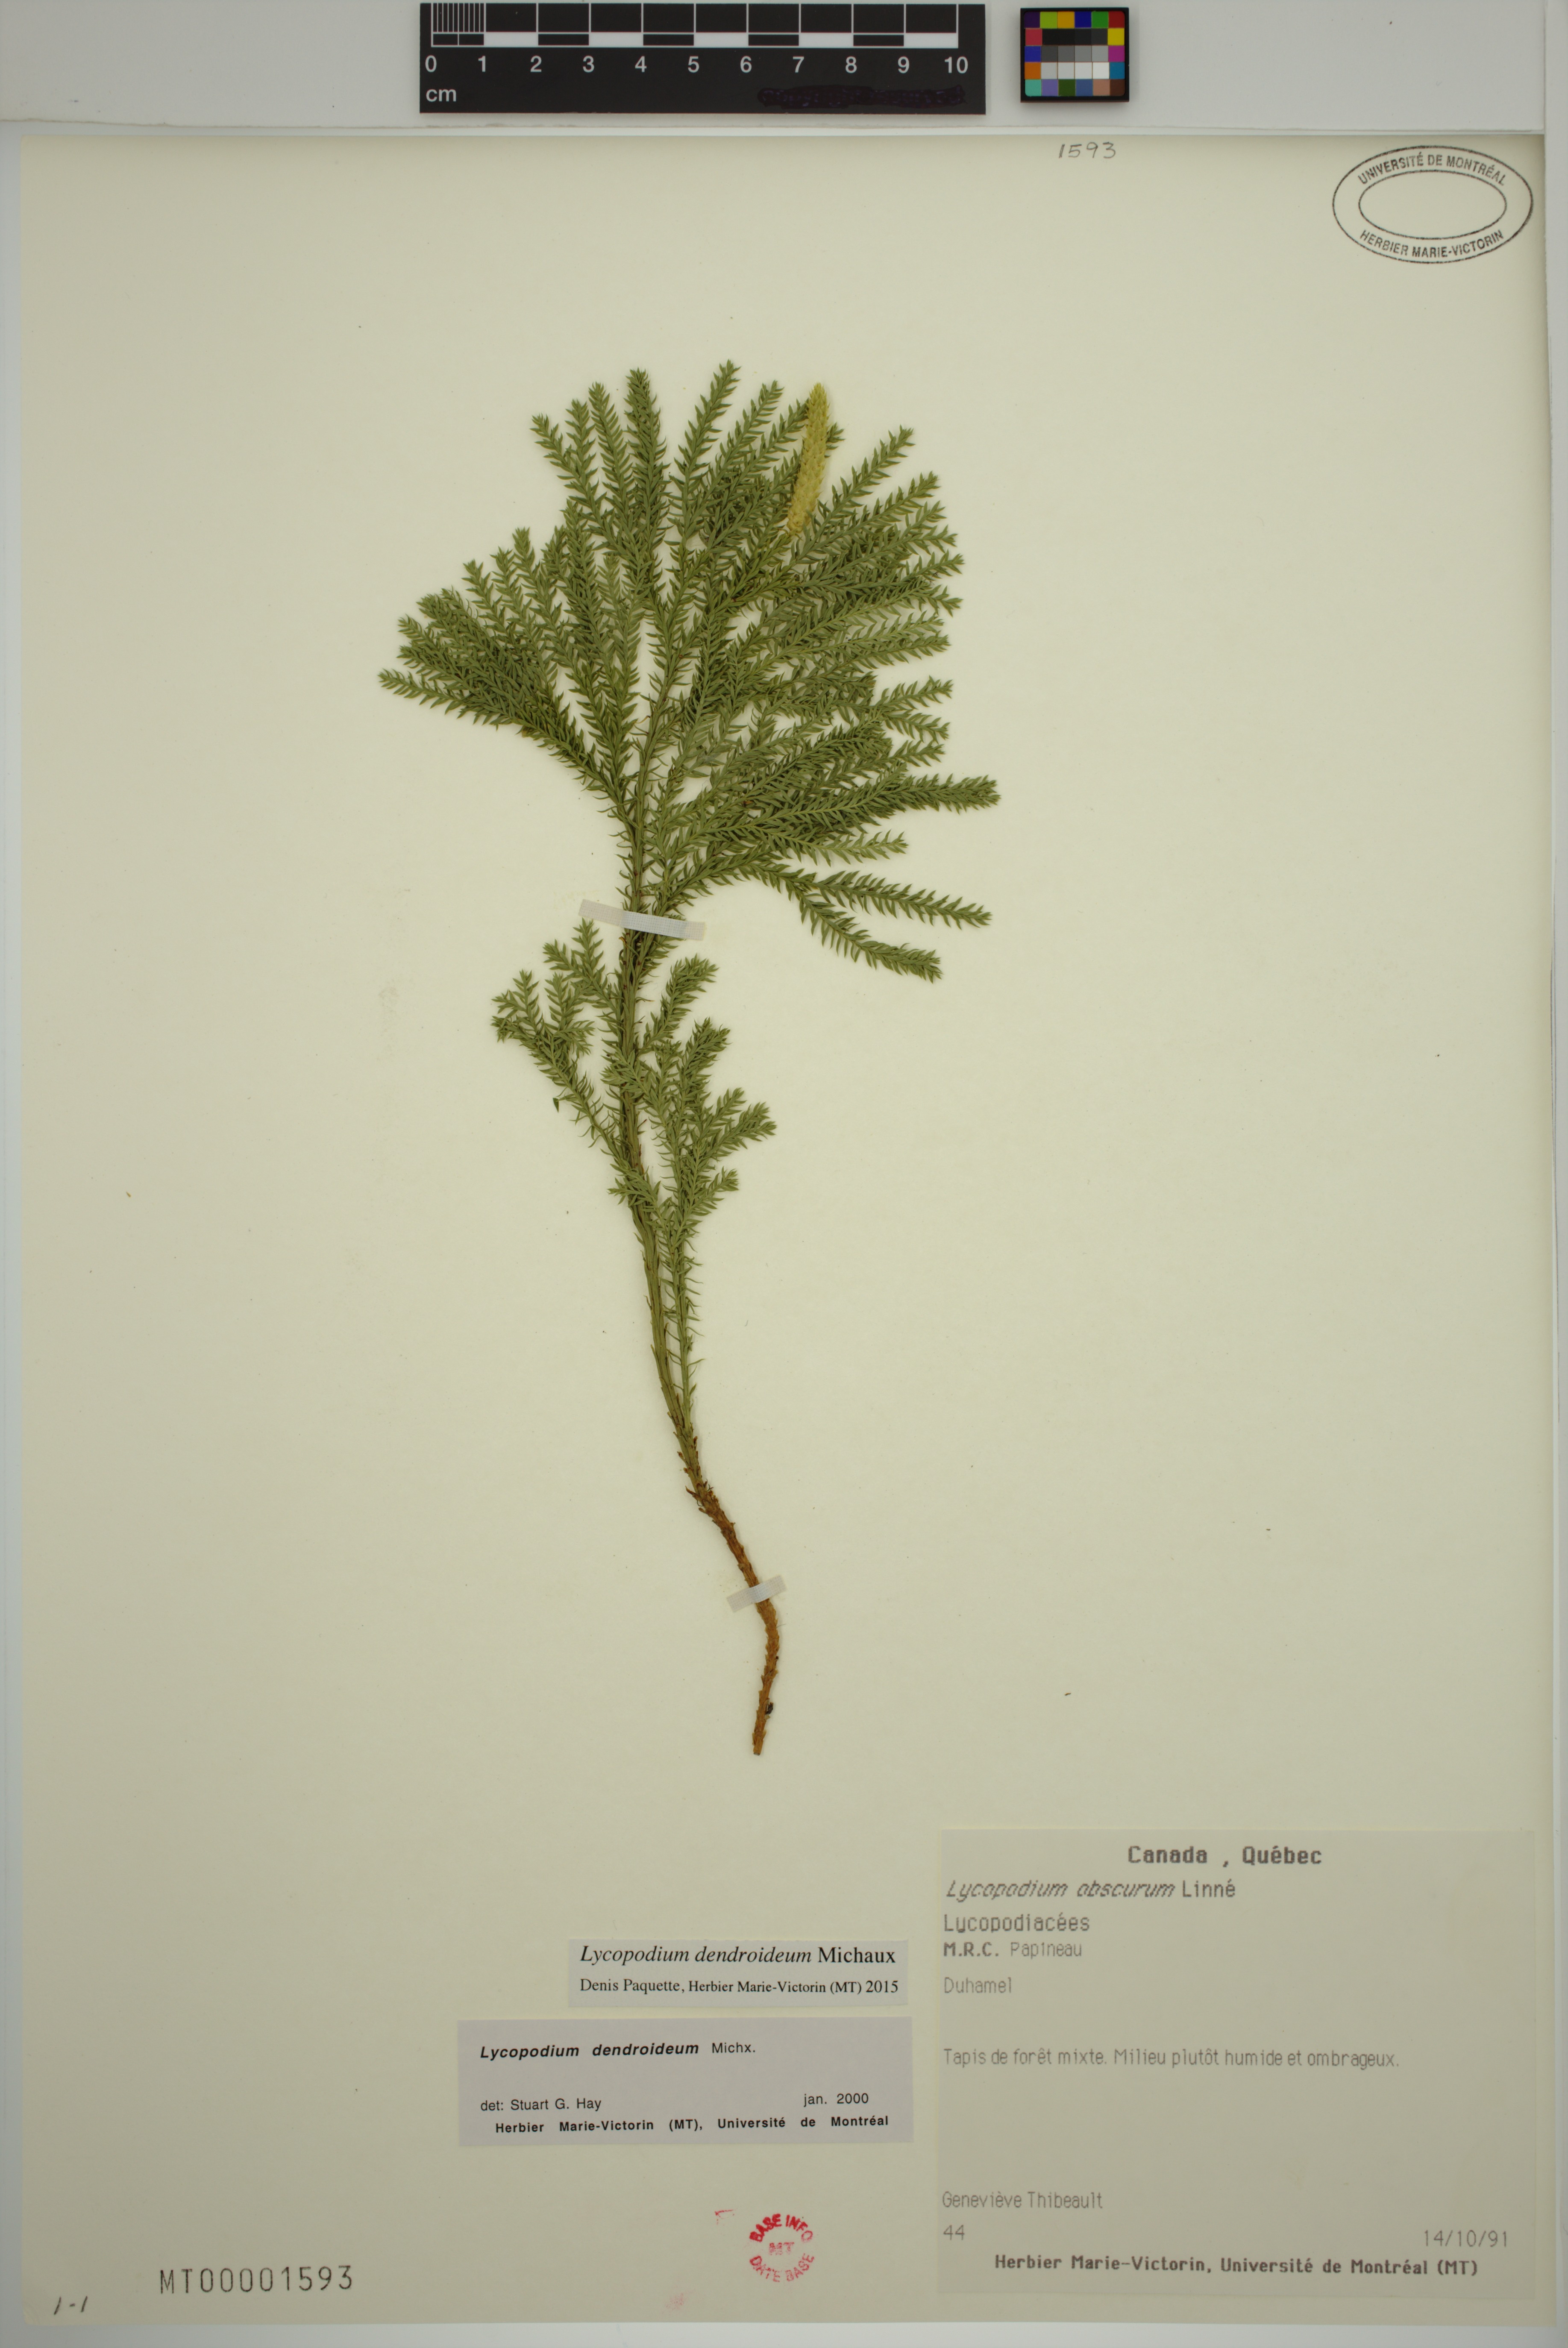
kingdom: Plantae
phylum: Tracheophyta
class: Lycopodiopsida
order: Lycopodiales
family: Lycopodiaceae
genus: Dendrolycopodium
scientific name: Dendrolycopodium dendroideum
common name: Northern tree-clubmoss
